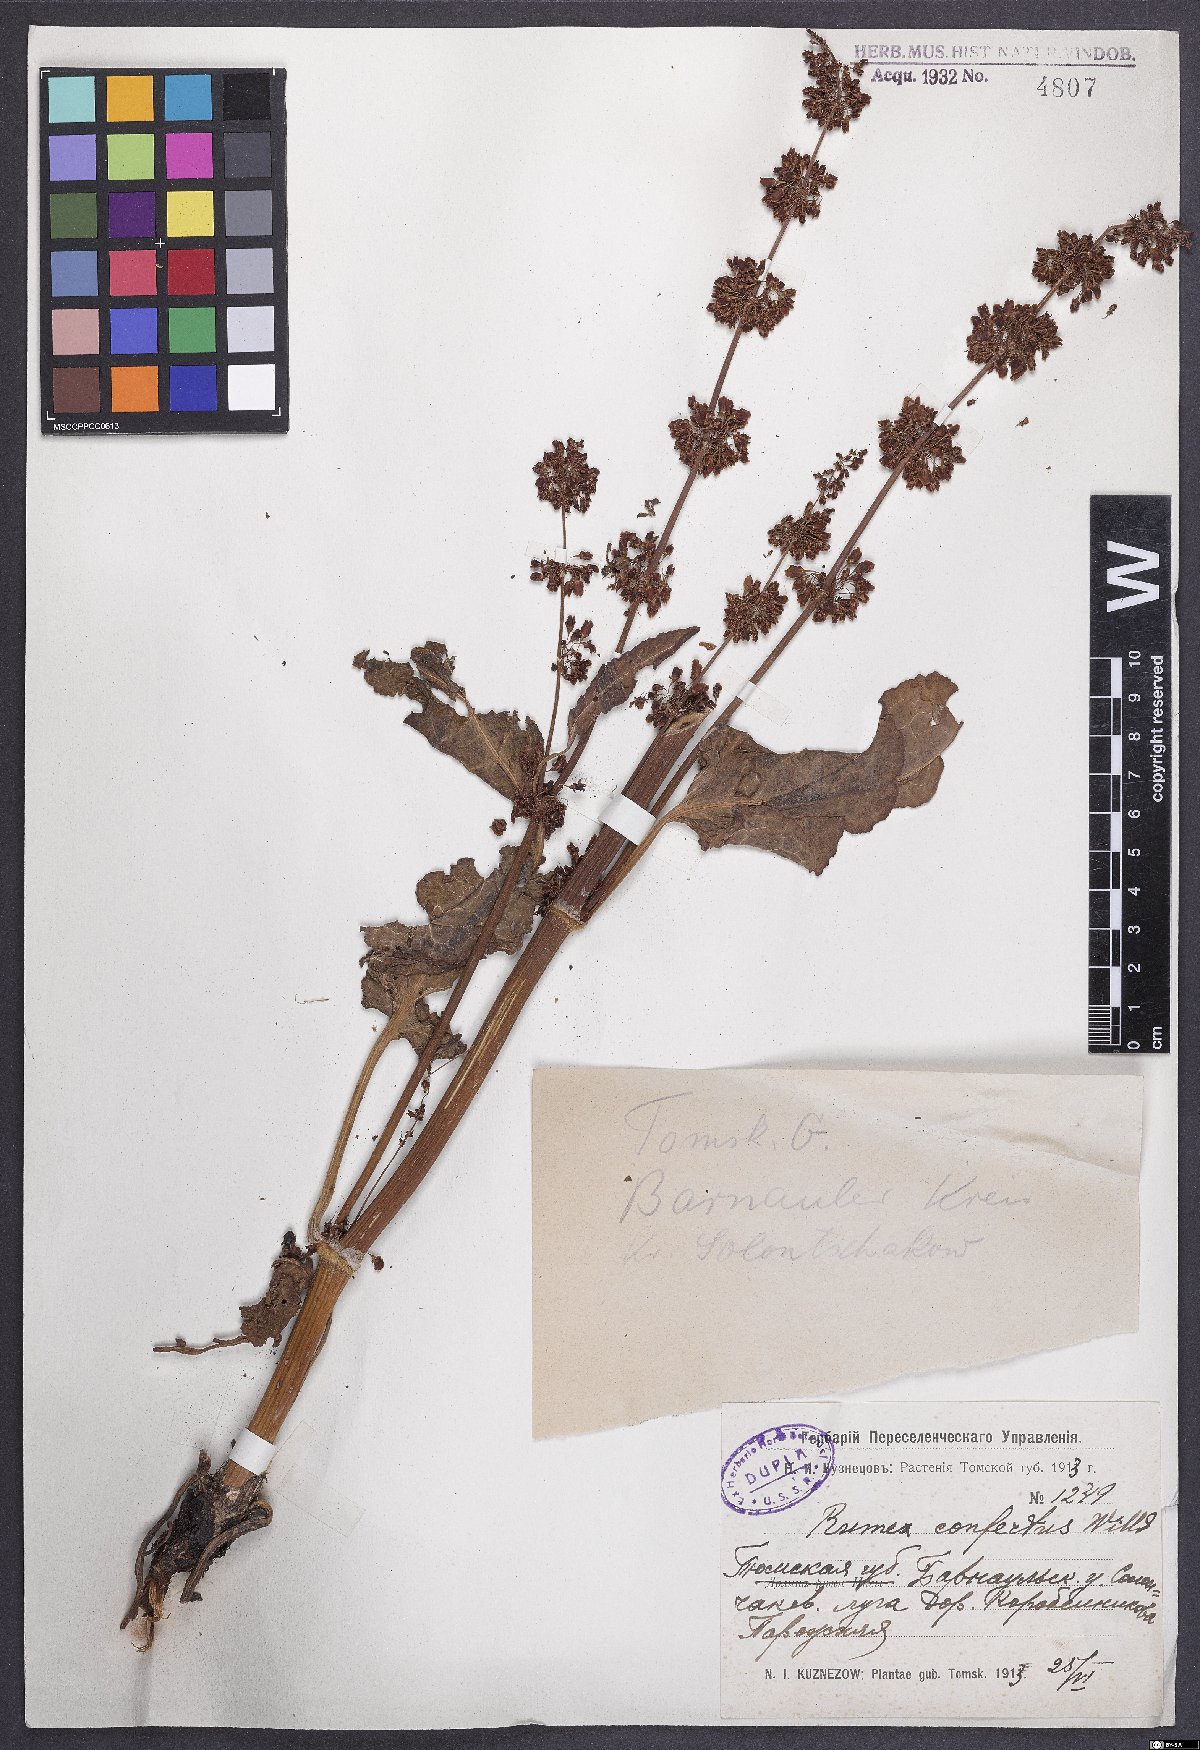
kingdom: Plantae
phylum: Tracheophyta
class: Magnoliopsida
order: Caryophyllales
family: Polygonaceae
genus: Rumex
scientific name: Rumex confertus
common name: Russian dock
